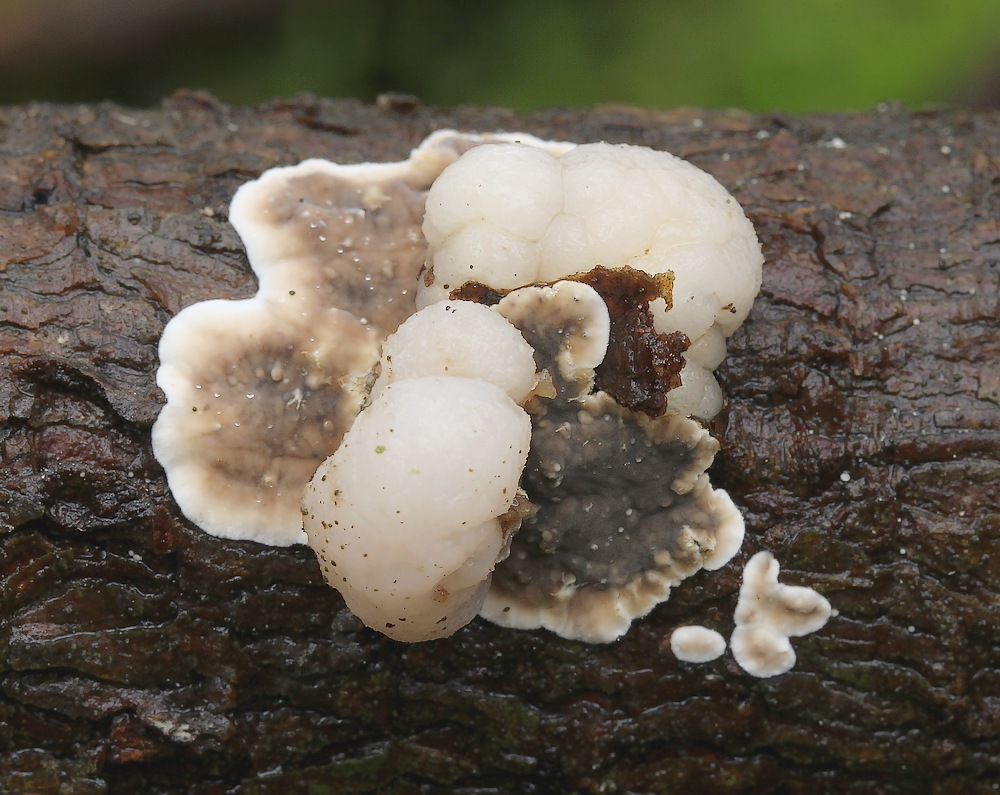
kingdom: Fungi
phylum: Basidiomycota
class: Tremellomycetes
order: Tremellales
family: Naemateliaceae
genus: Naematelia
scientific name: Naematelia encephala
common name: fyrre-bævresvamp
